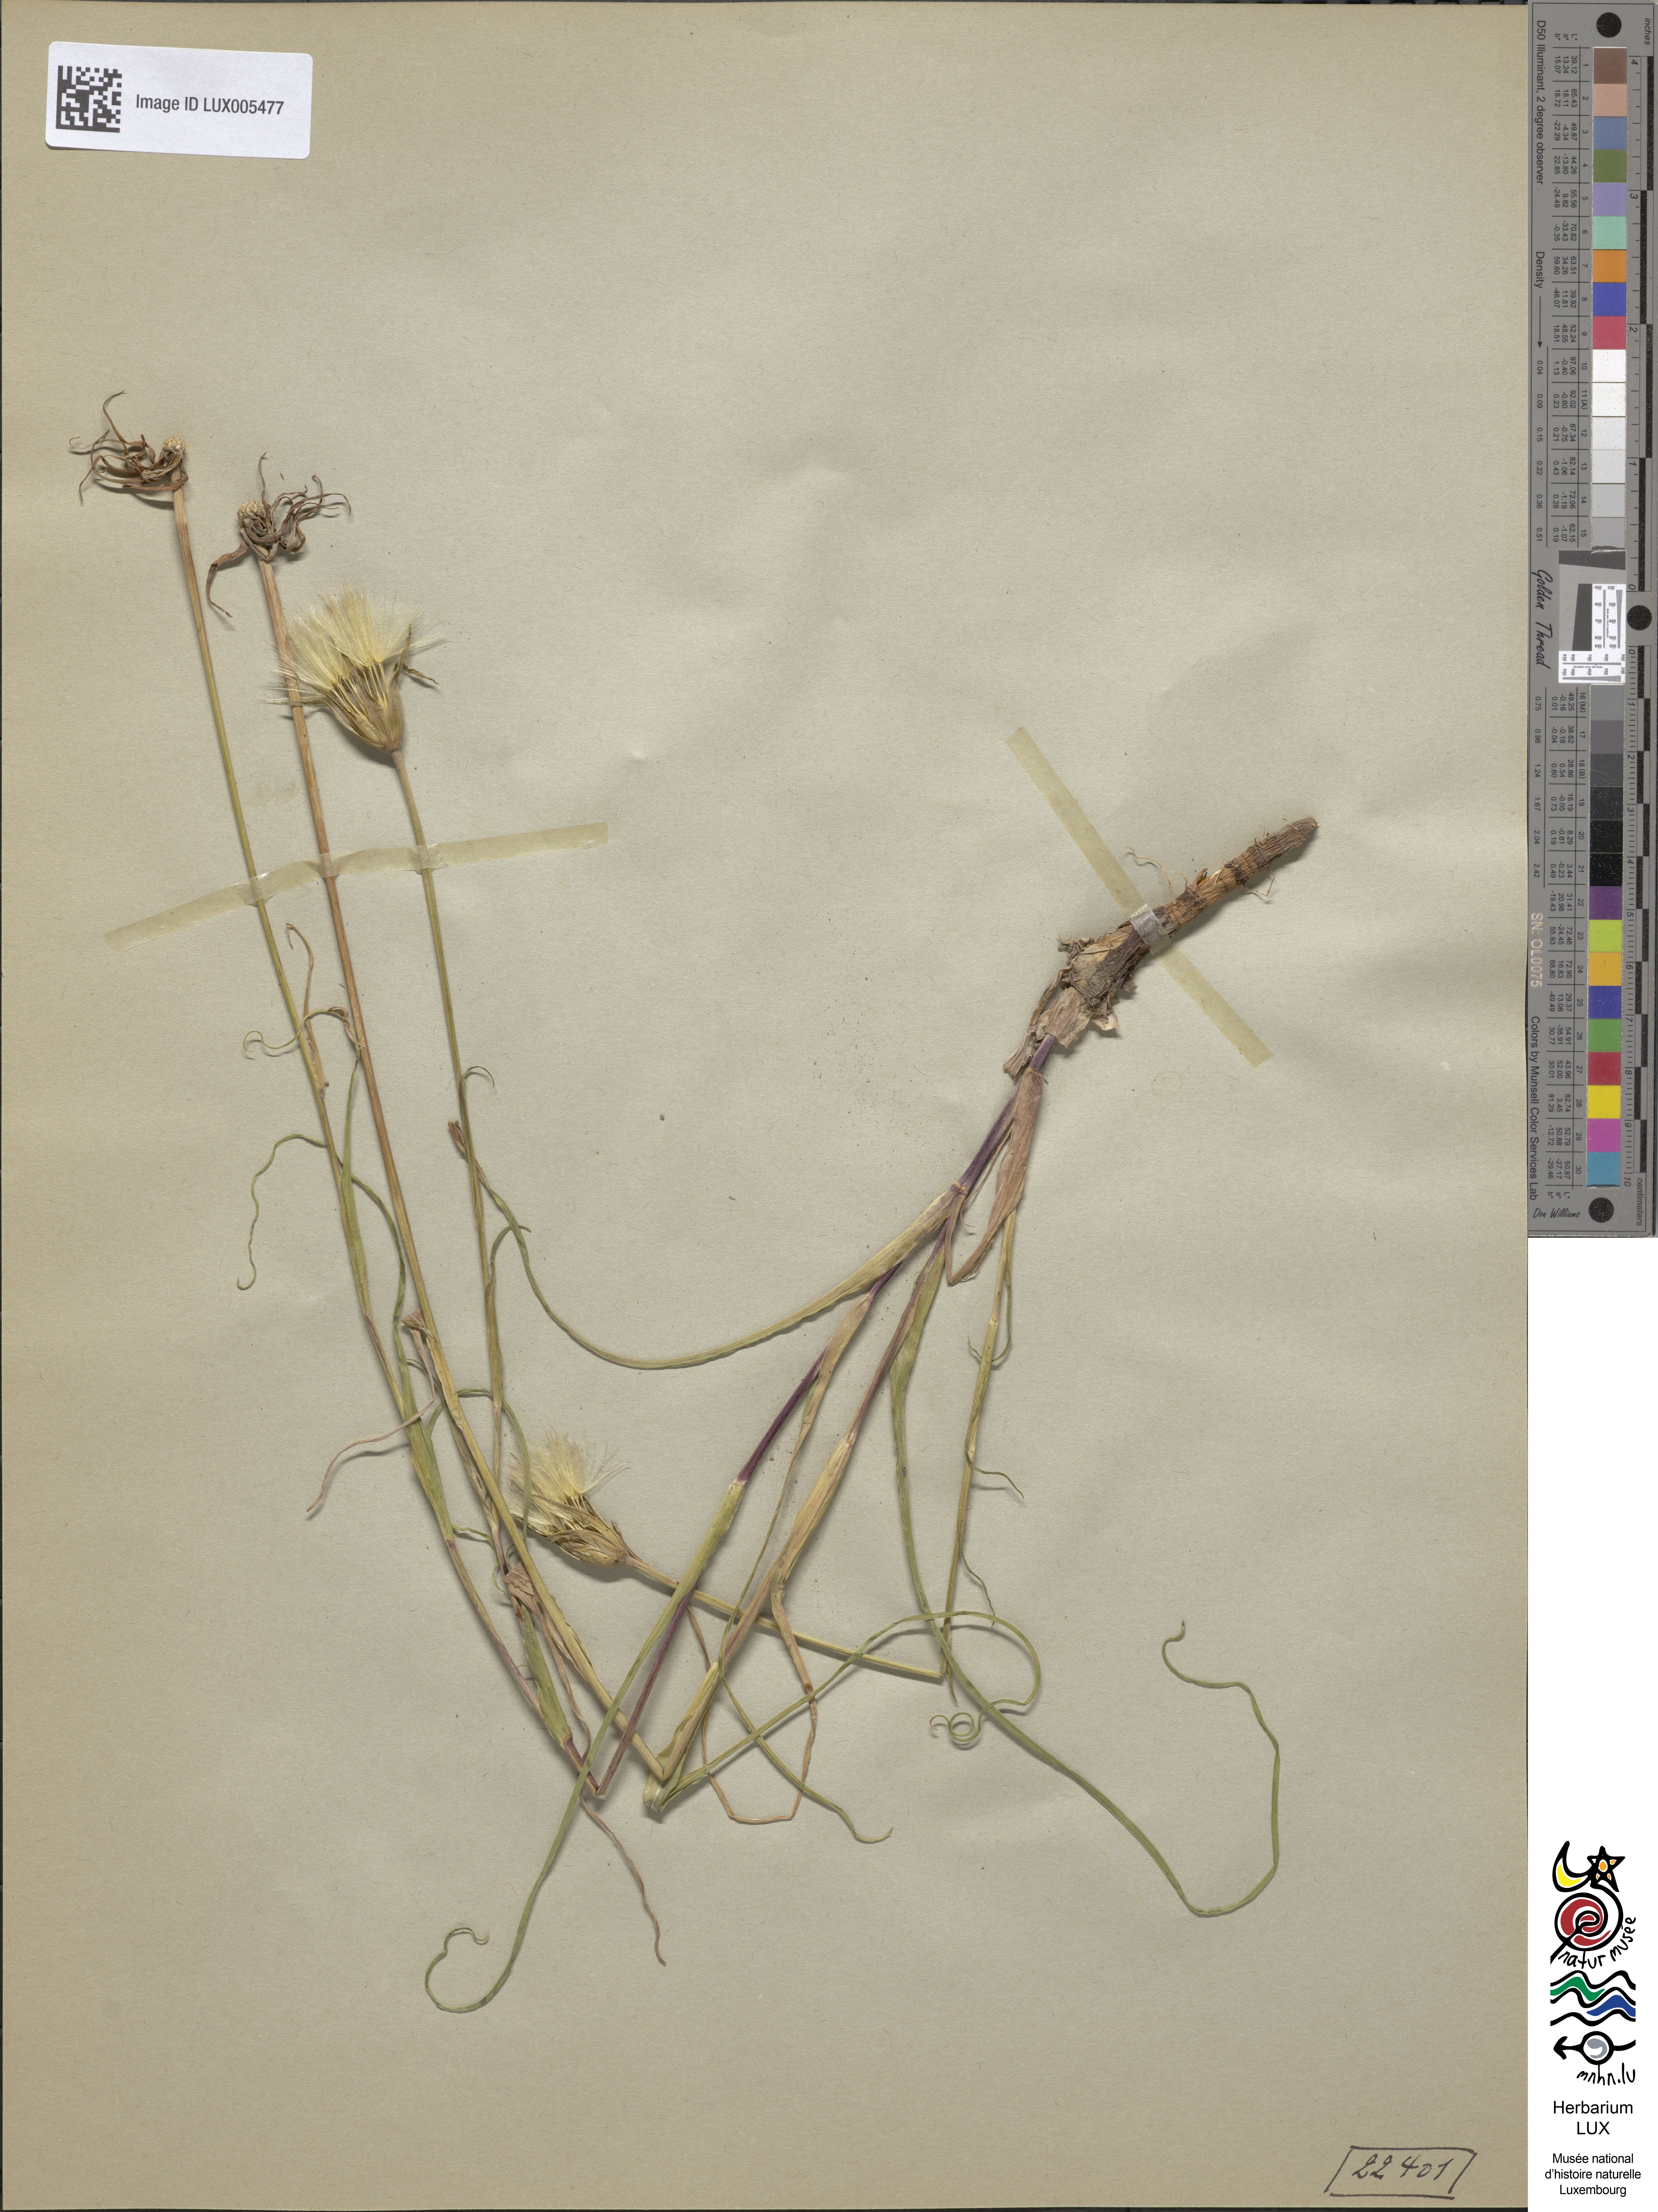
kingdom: Plantae
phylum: Tracheophyta
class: Magnoliopsida
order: Asterales
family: Asteraceae
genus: Tragopogon
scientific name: Tragopogon pratensis
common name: Goat's-beard
